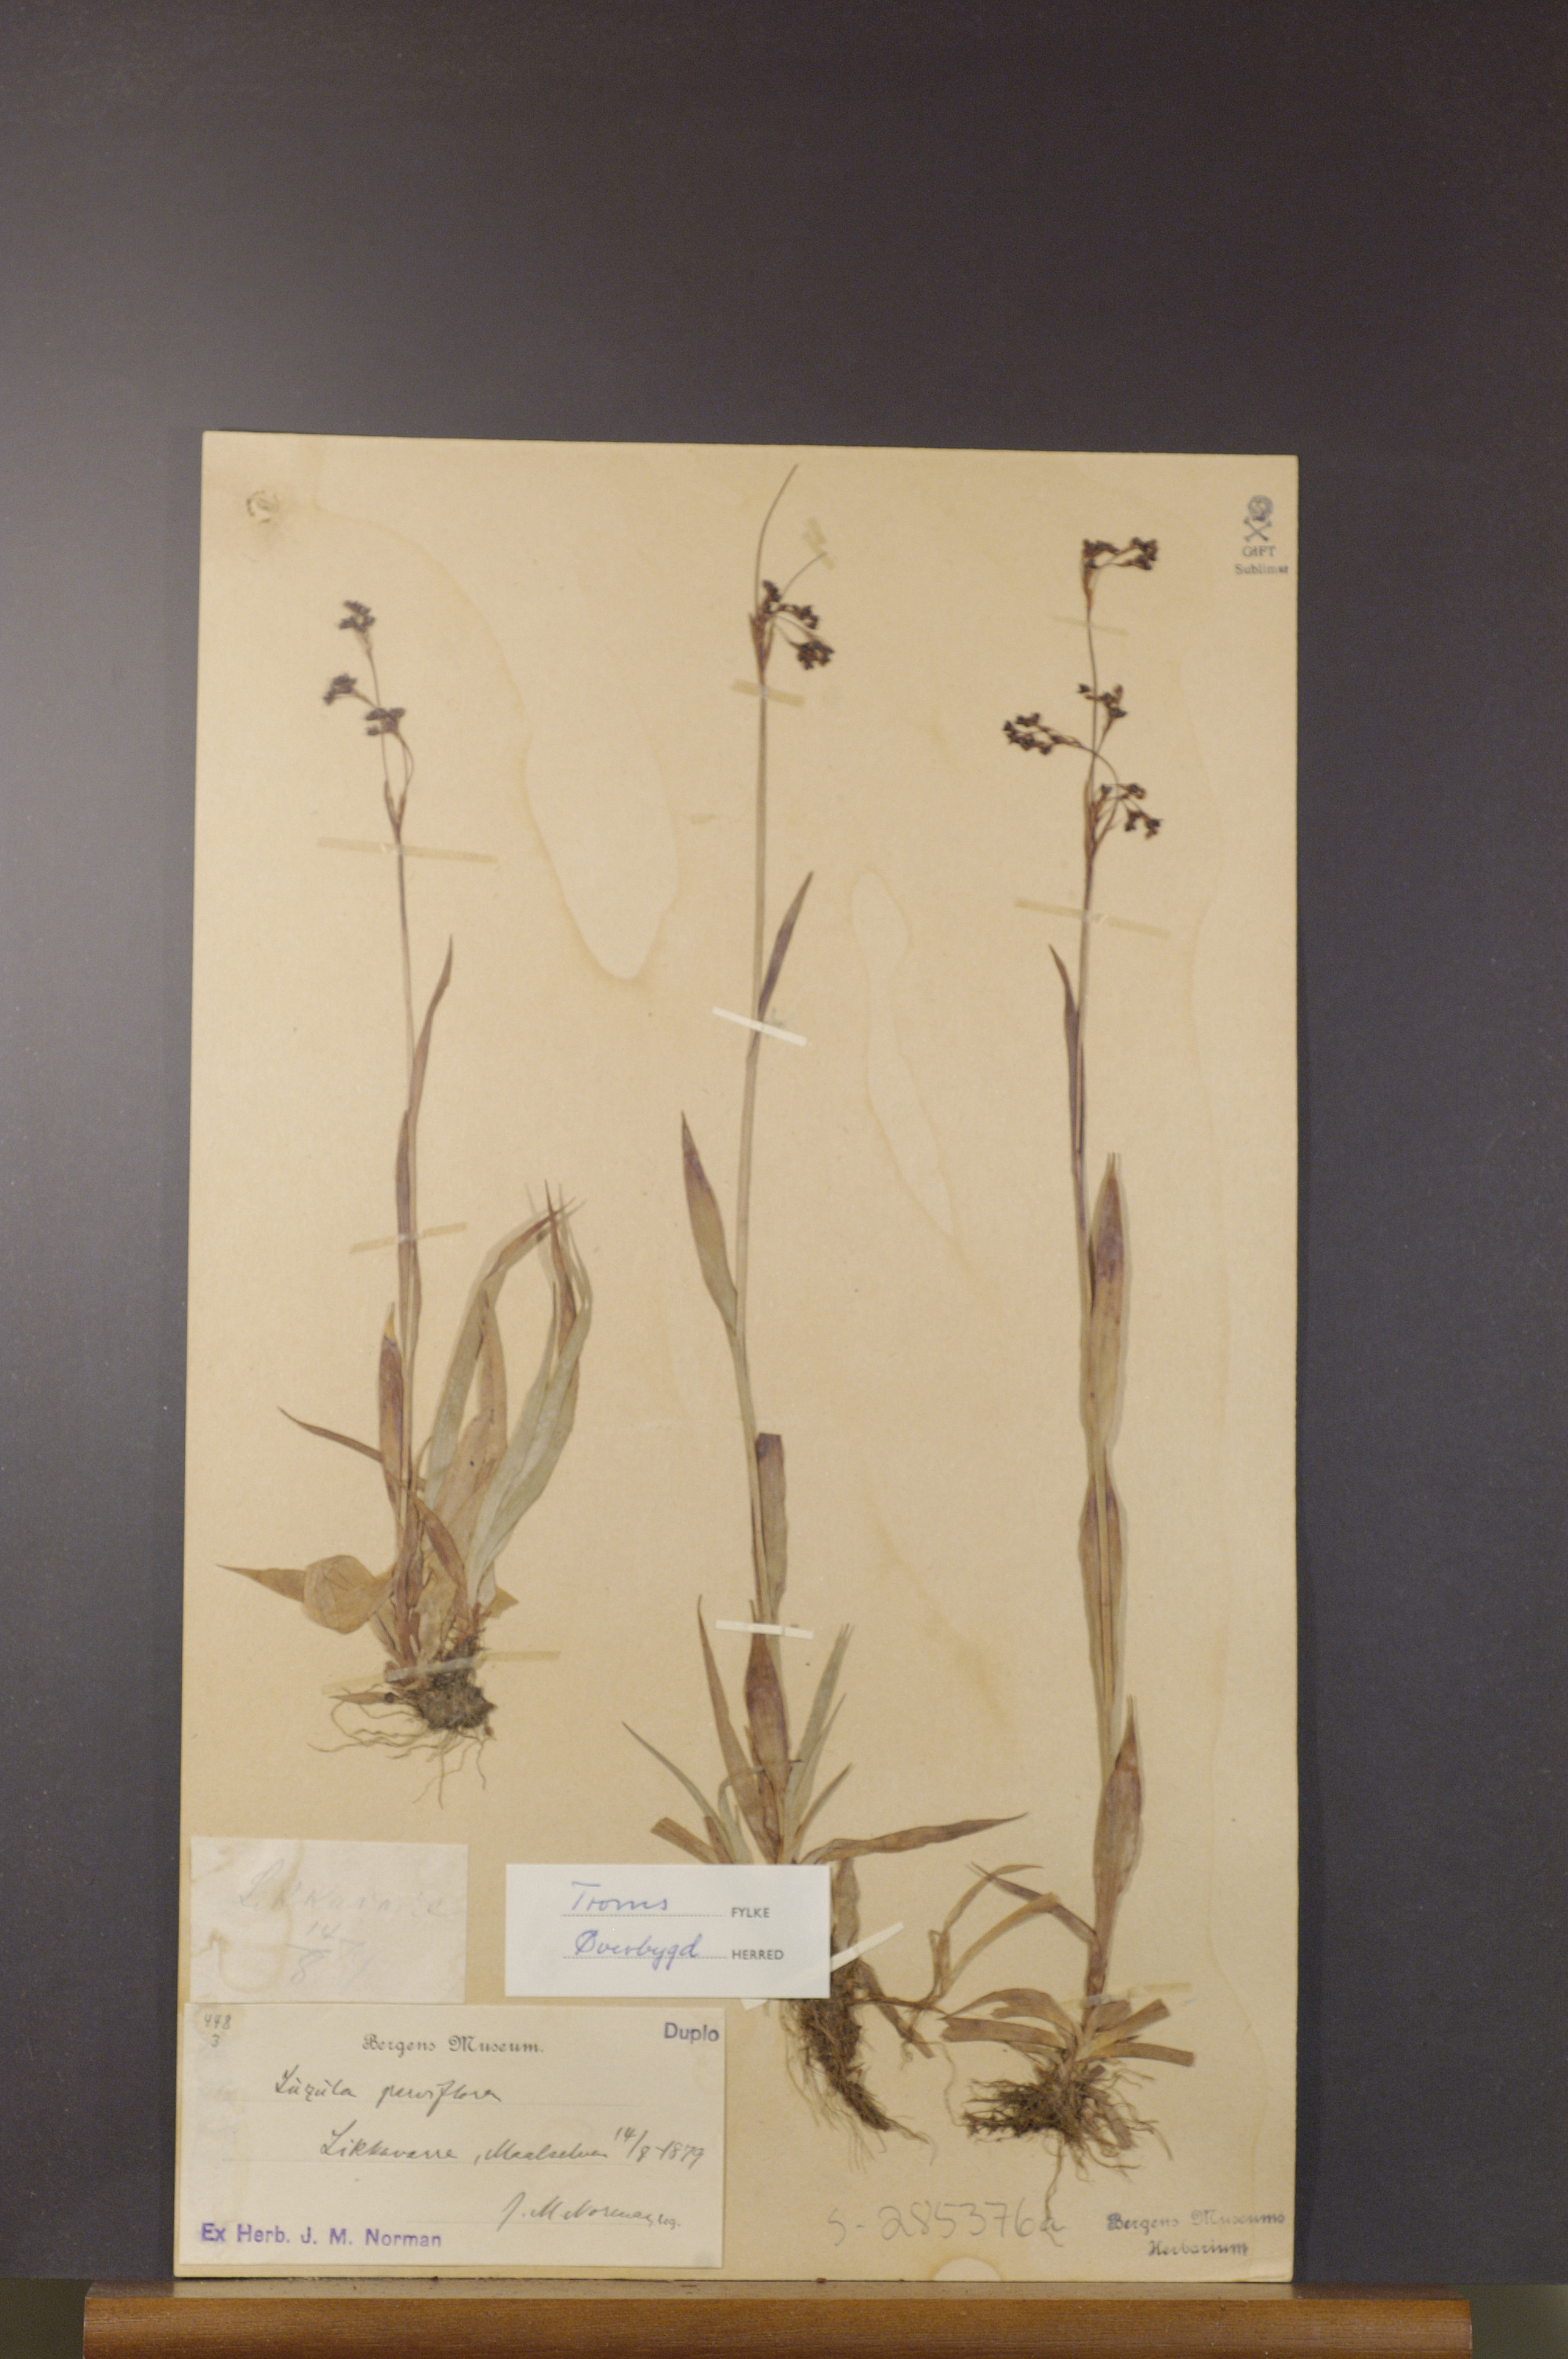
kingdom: Plantae
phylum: Tracheophyta
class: Liliopsida
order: Poales
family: Juncaceae
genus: Luzula
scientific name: Luzula parviflora
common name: Millet woodrush
